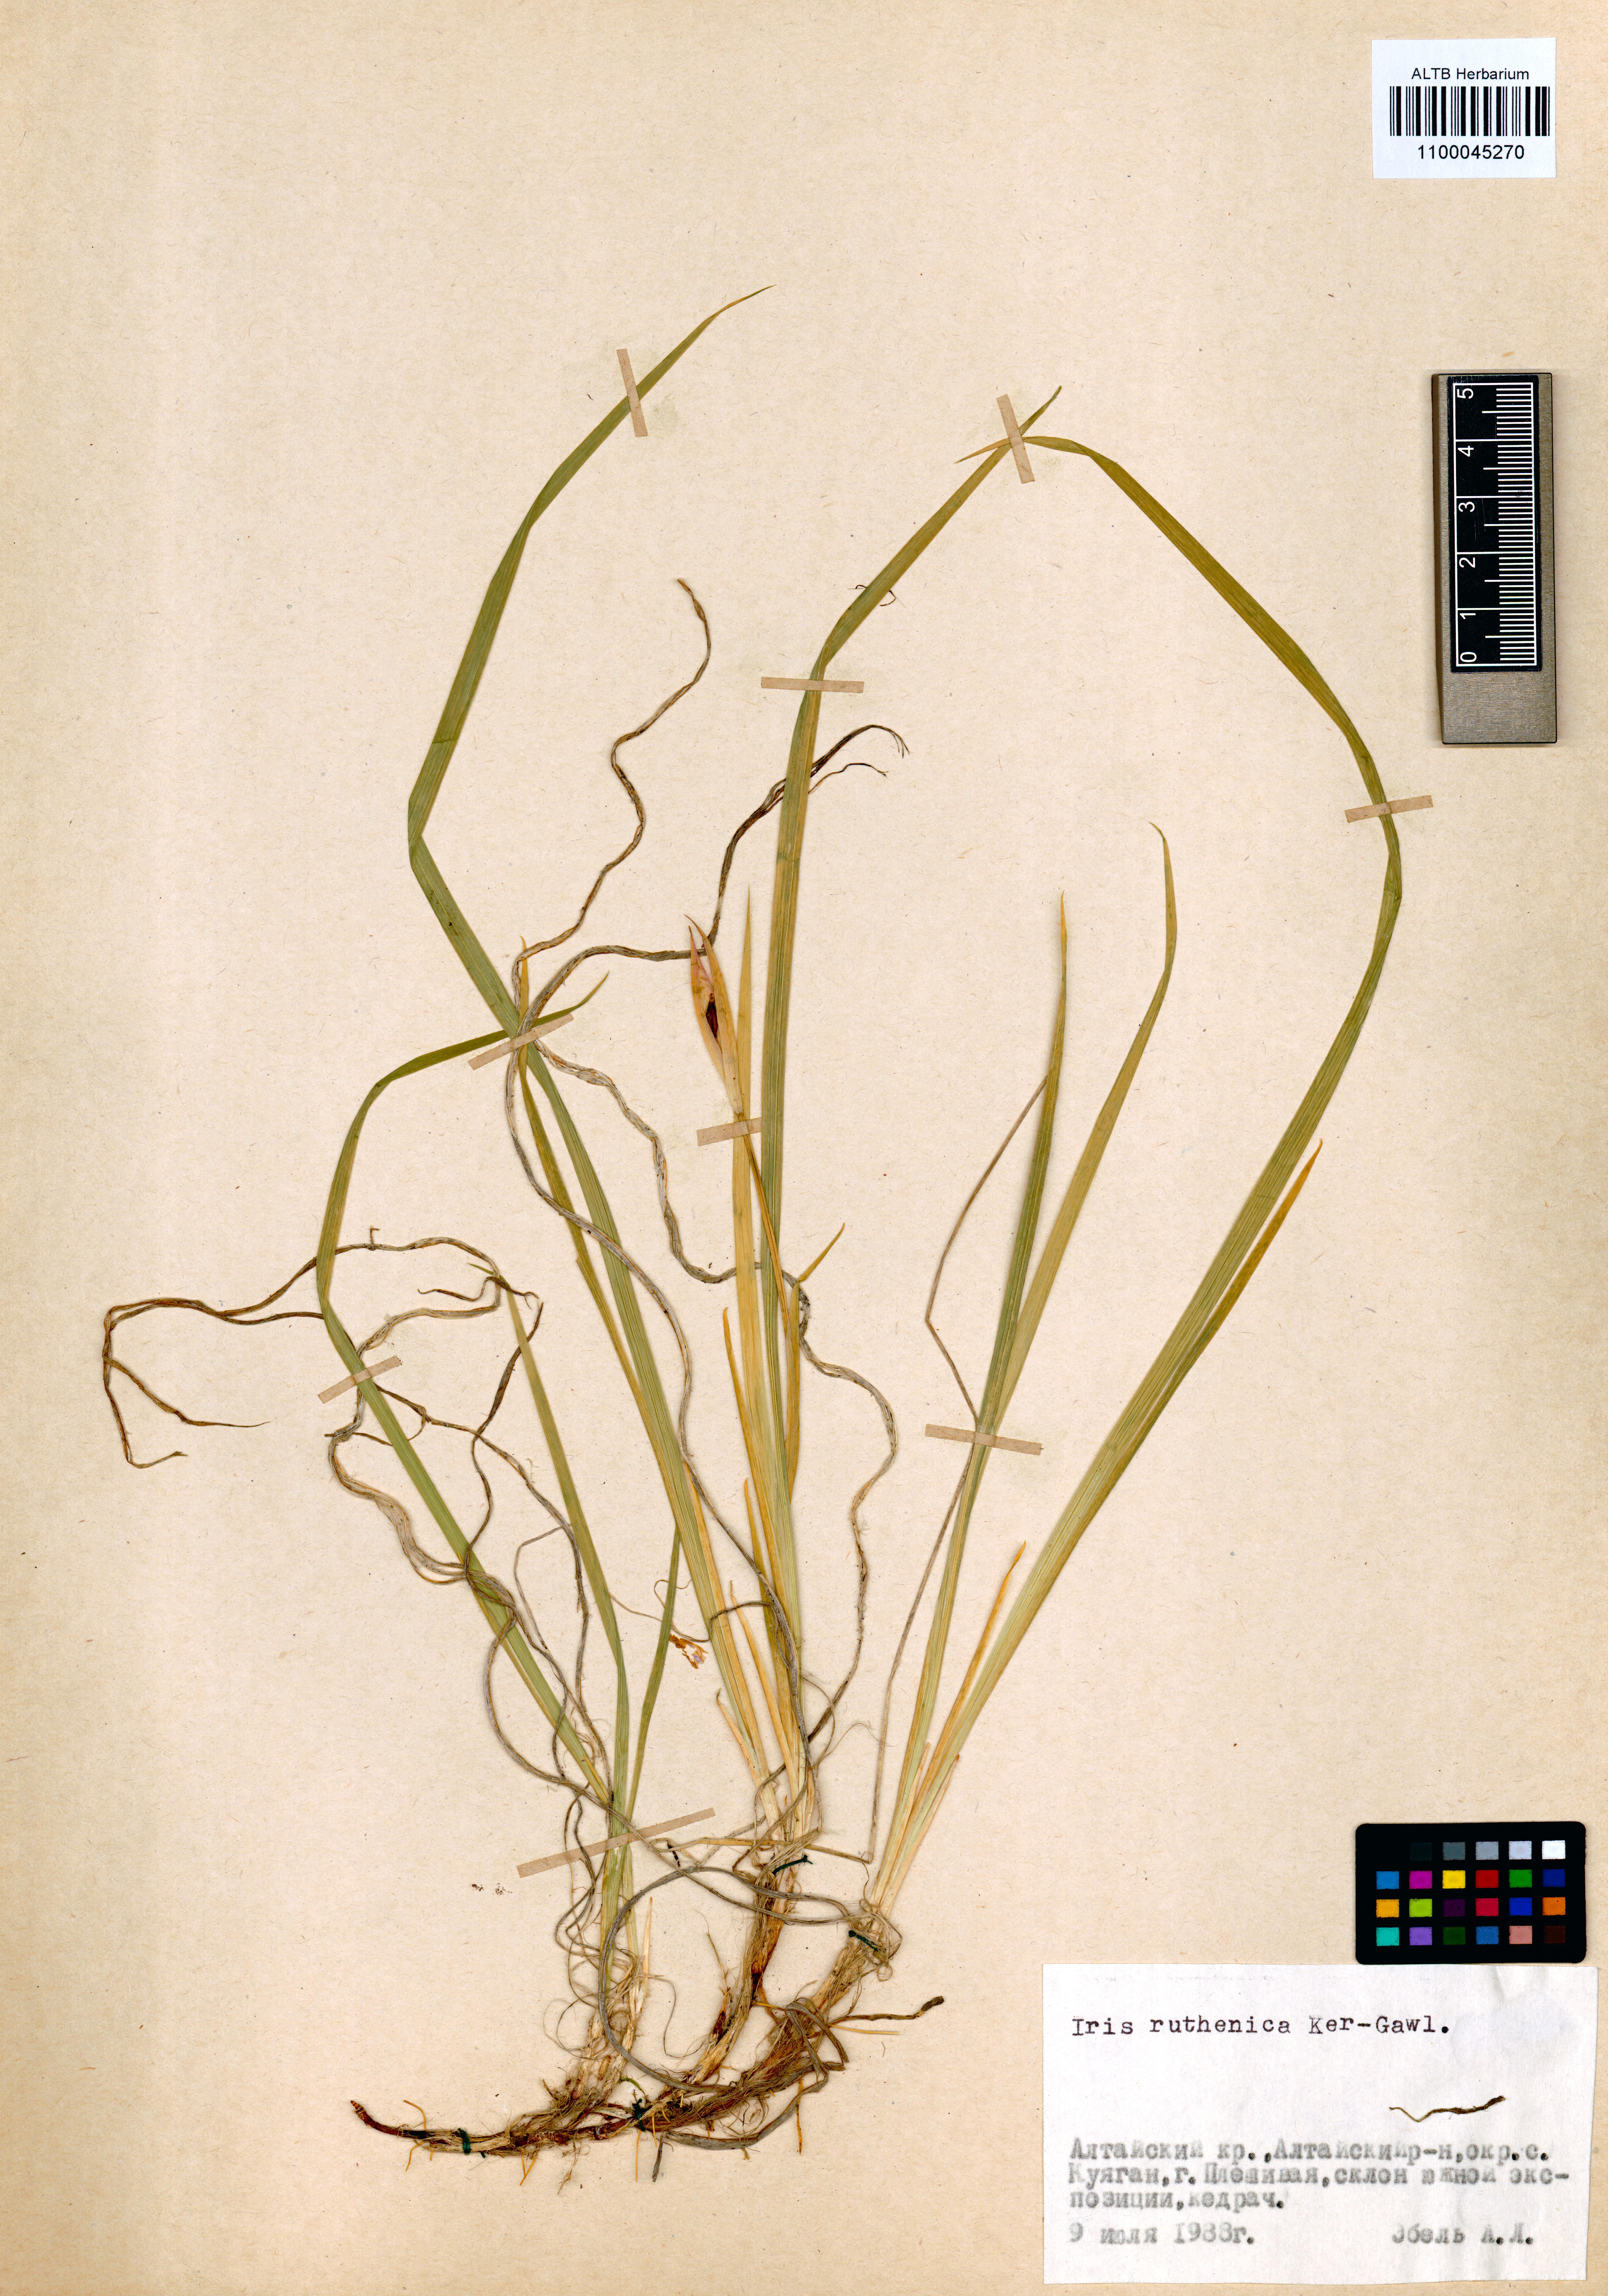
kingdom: Plantae
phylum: Tracheophyta
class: Liliopsida
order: Asparagales
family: Iridaceae
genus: Iris
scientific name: Iris ruthenica
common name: Purple-bract iris
